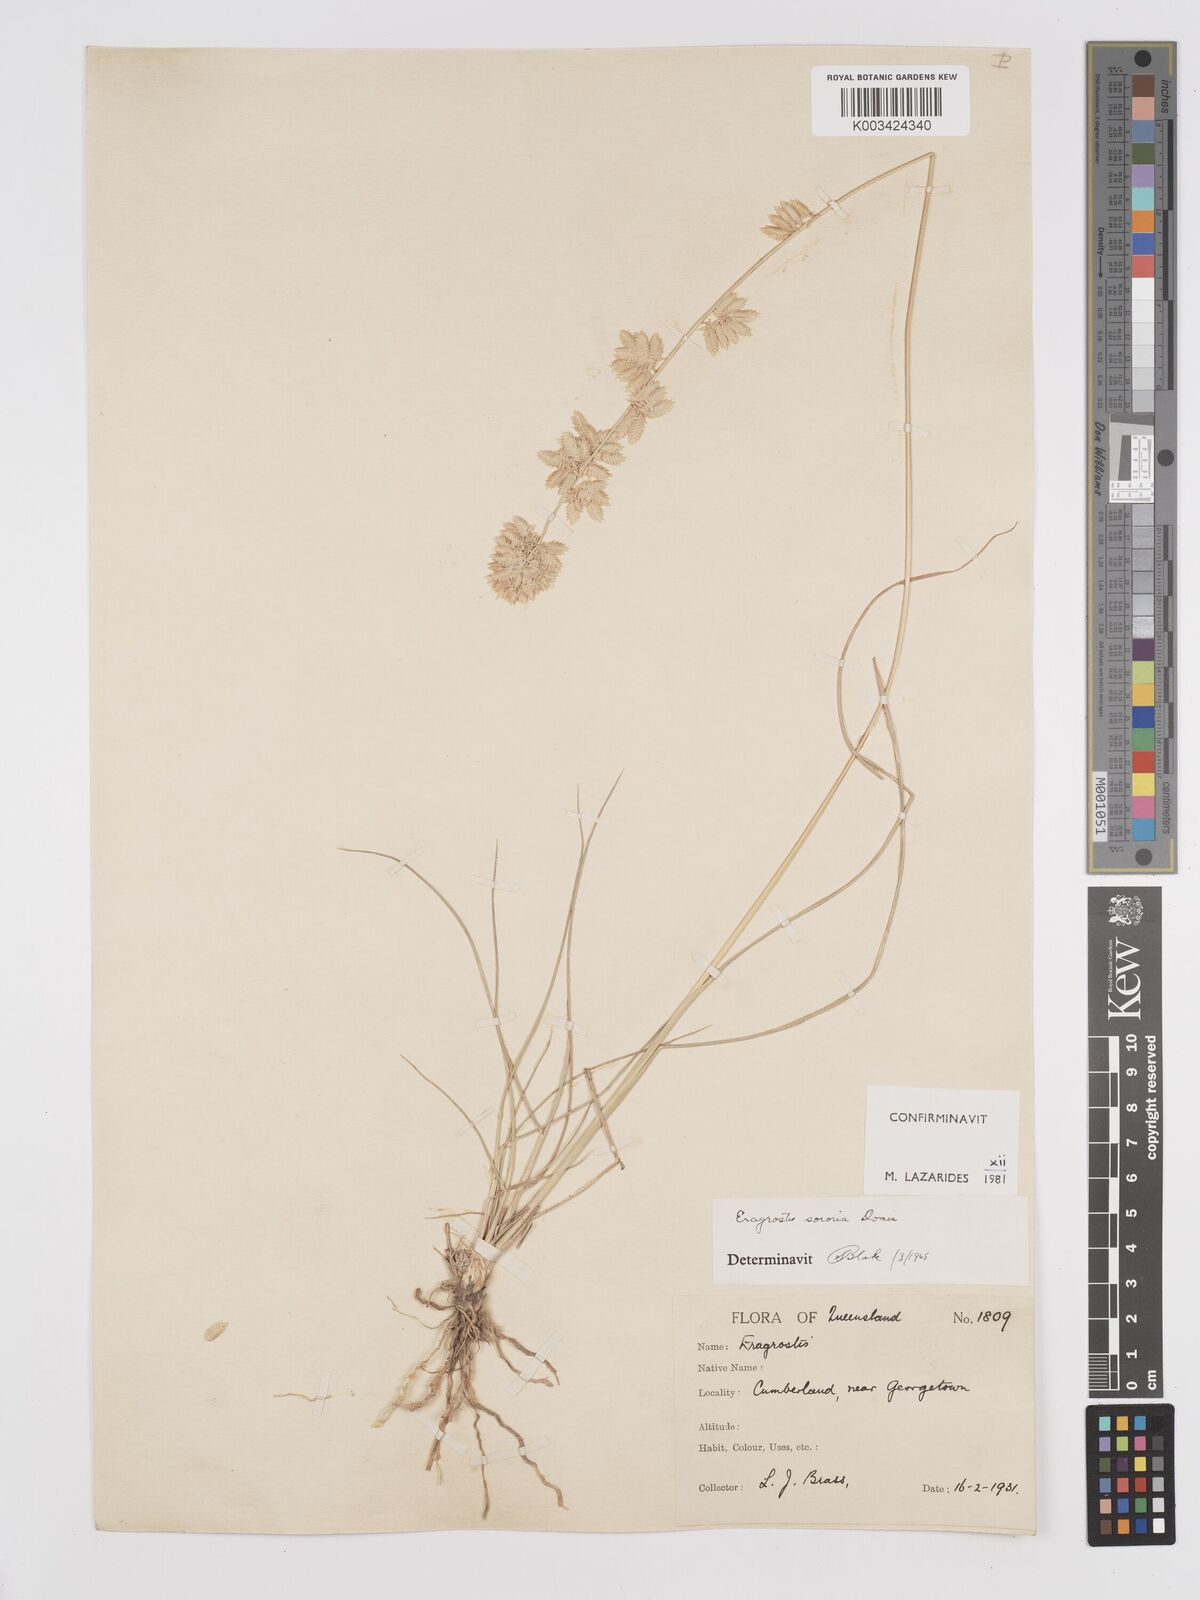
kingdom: Plantae
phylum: Tracheophyta
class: Liliopsida
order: Poales
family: Poaceae
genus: Eragrostis
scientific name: Eragrostis sororia
